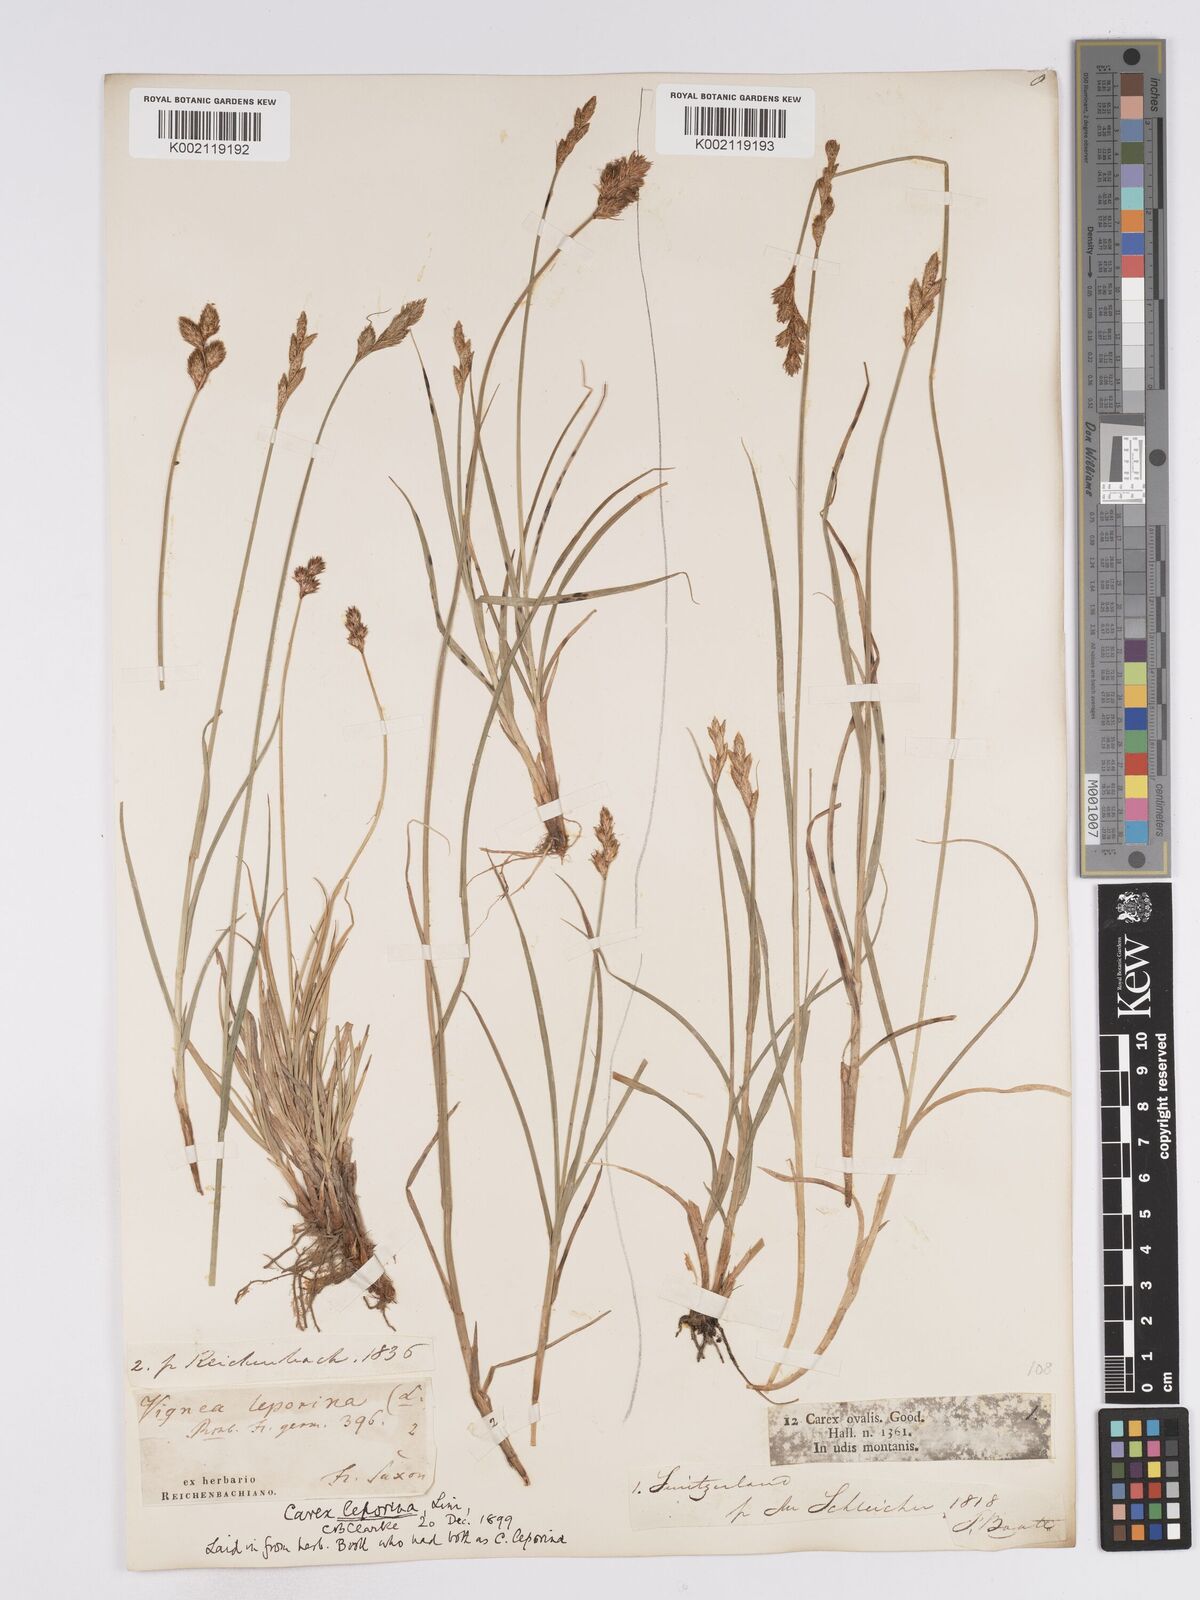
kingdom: Plantae
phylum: Tracheophyta
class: Liliopsida
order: Poales
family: Cyperaceae
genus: Carex
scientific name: Carex leporina
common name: Oval sedge
